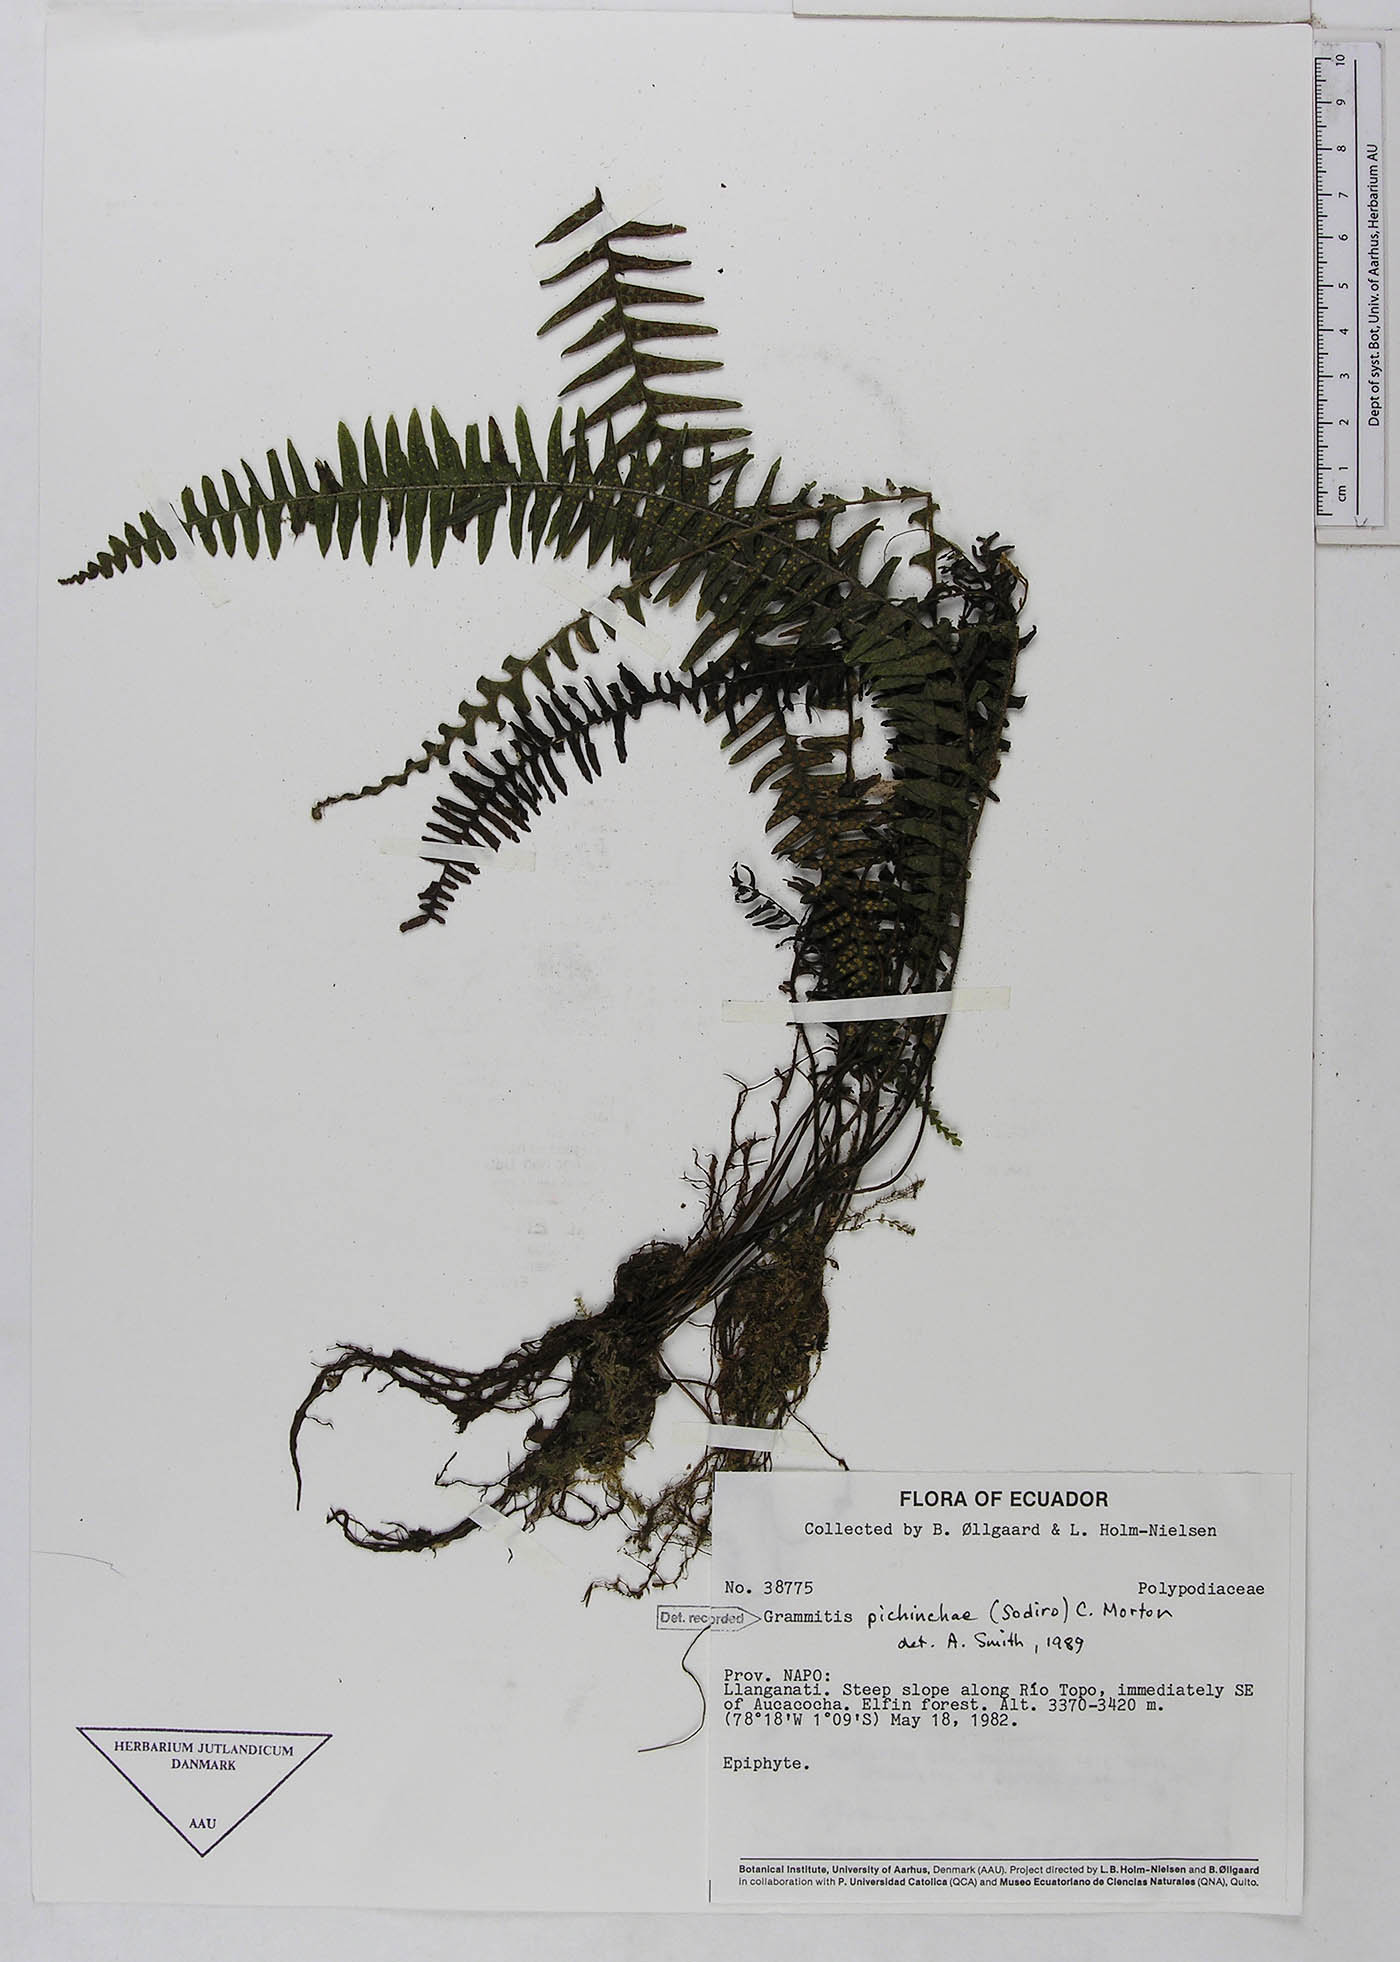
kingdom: Plantae
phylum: Tracheophyta
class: Polypodiopsida
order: Polypodiales
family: Polypodiaceae
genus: Ascogrammitis
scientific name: Ascogrammitis pichinchae
